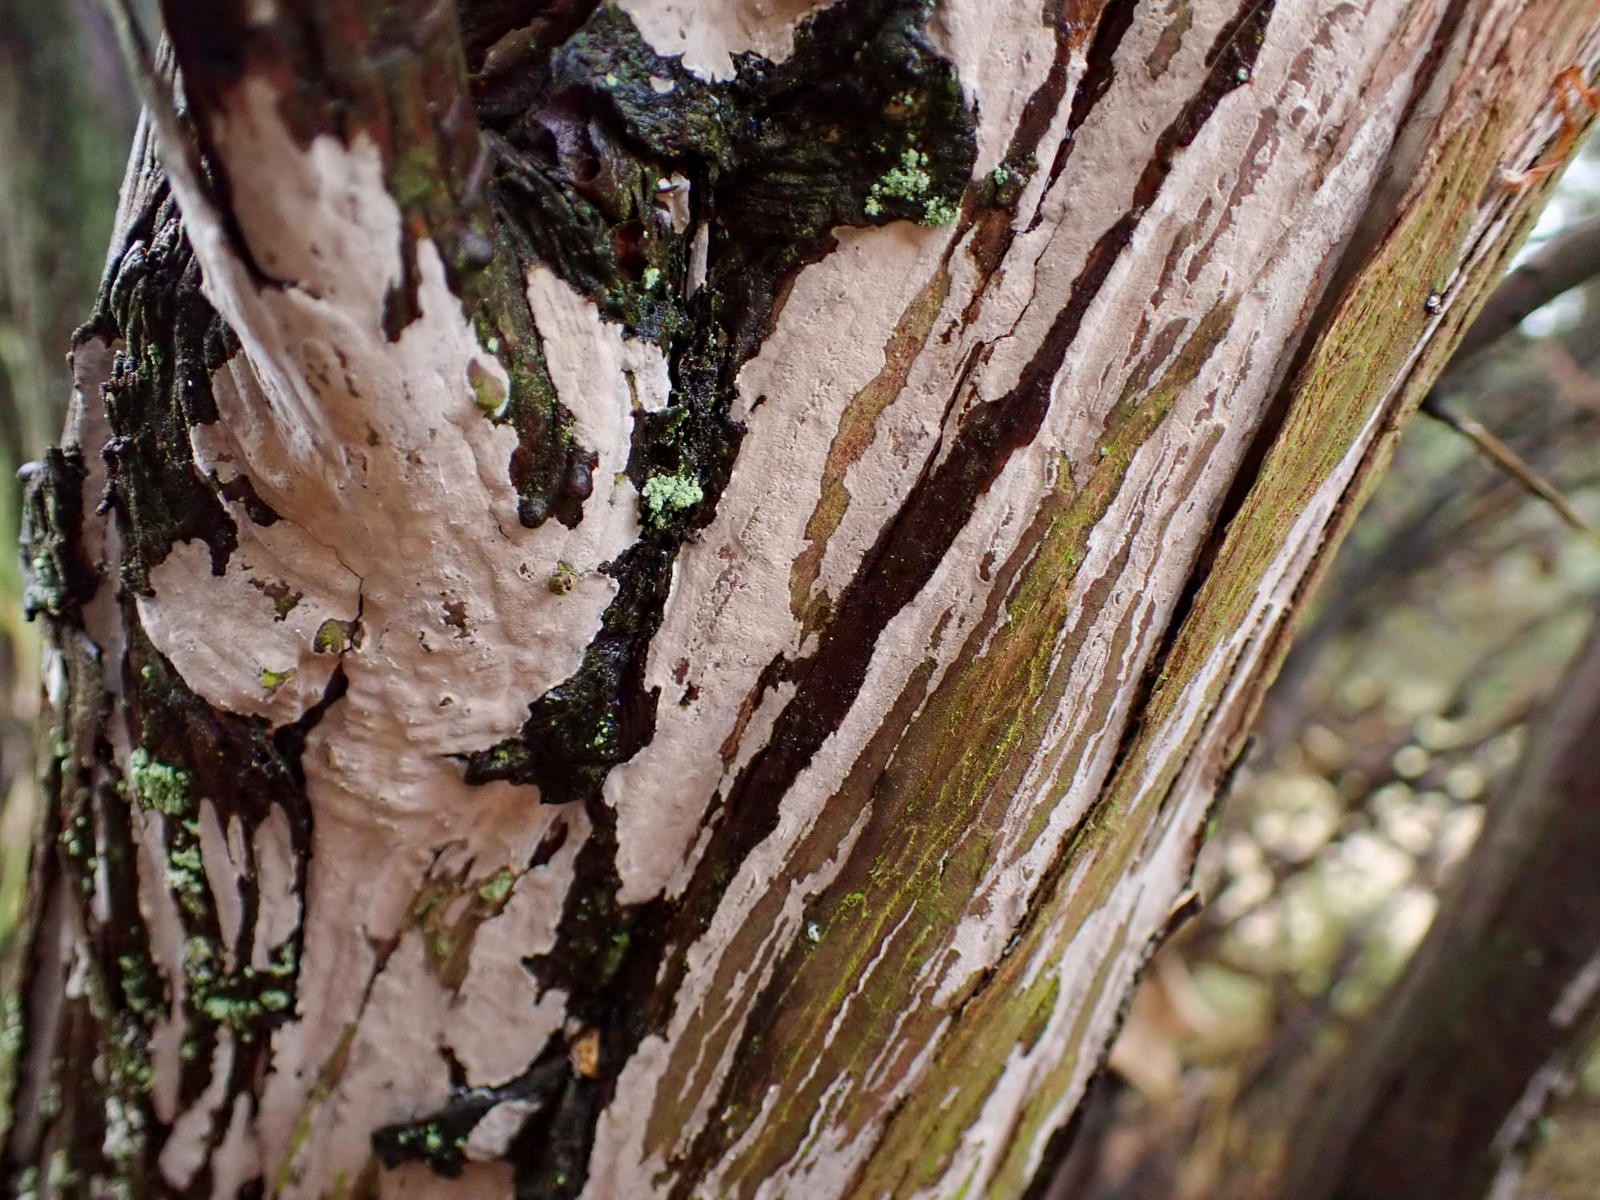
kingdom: Fungi
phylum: Basidiomycota
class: Agaricomycetes
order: Russulales
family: Echinodontiaceae
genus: Amylostereum
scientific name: Amylostereum laevigatum
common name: ene-lædersvamp
